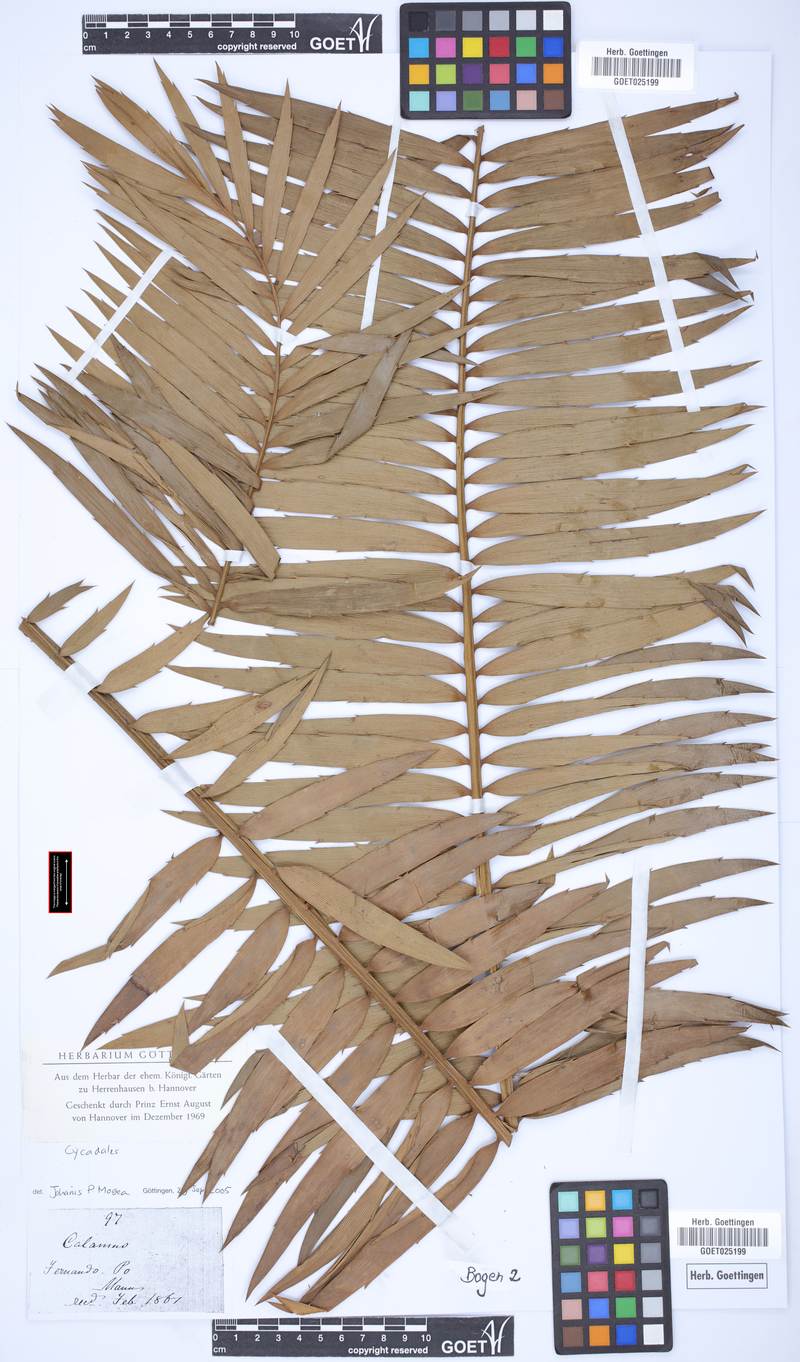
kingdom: Plantae
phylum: Tracheophyta
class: Liliopsida
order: Arecales
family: Arecaceae
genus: Calamus
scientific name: Calamus
